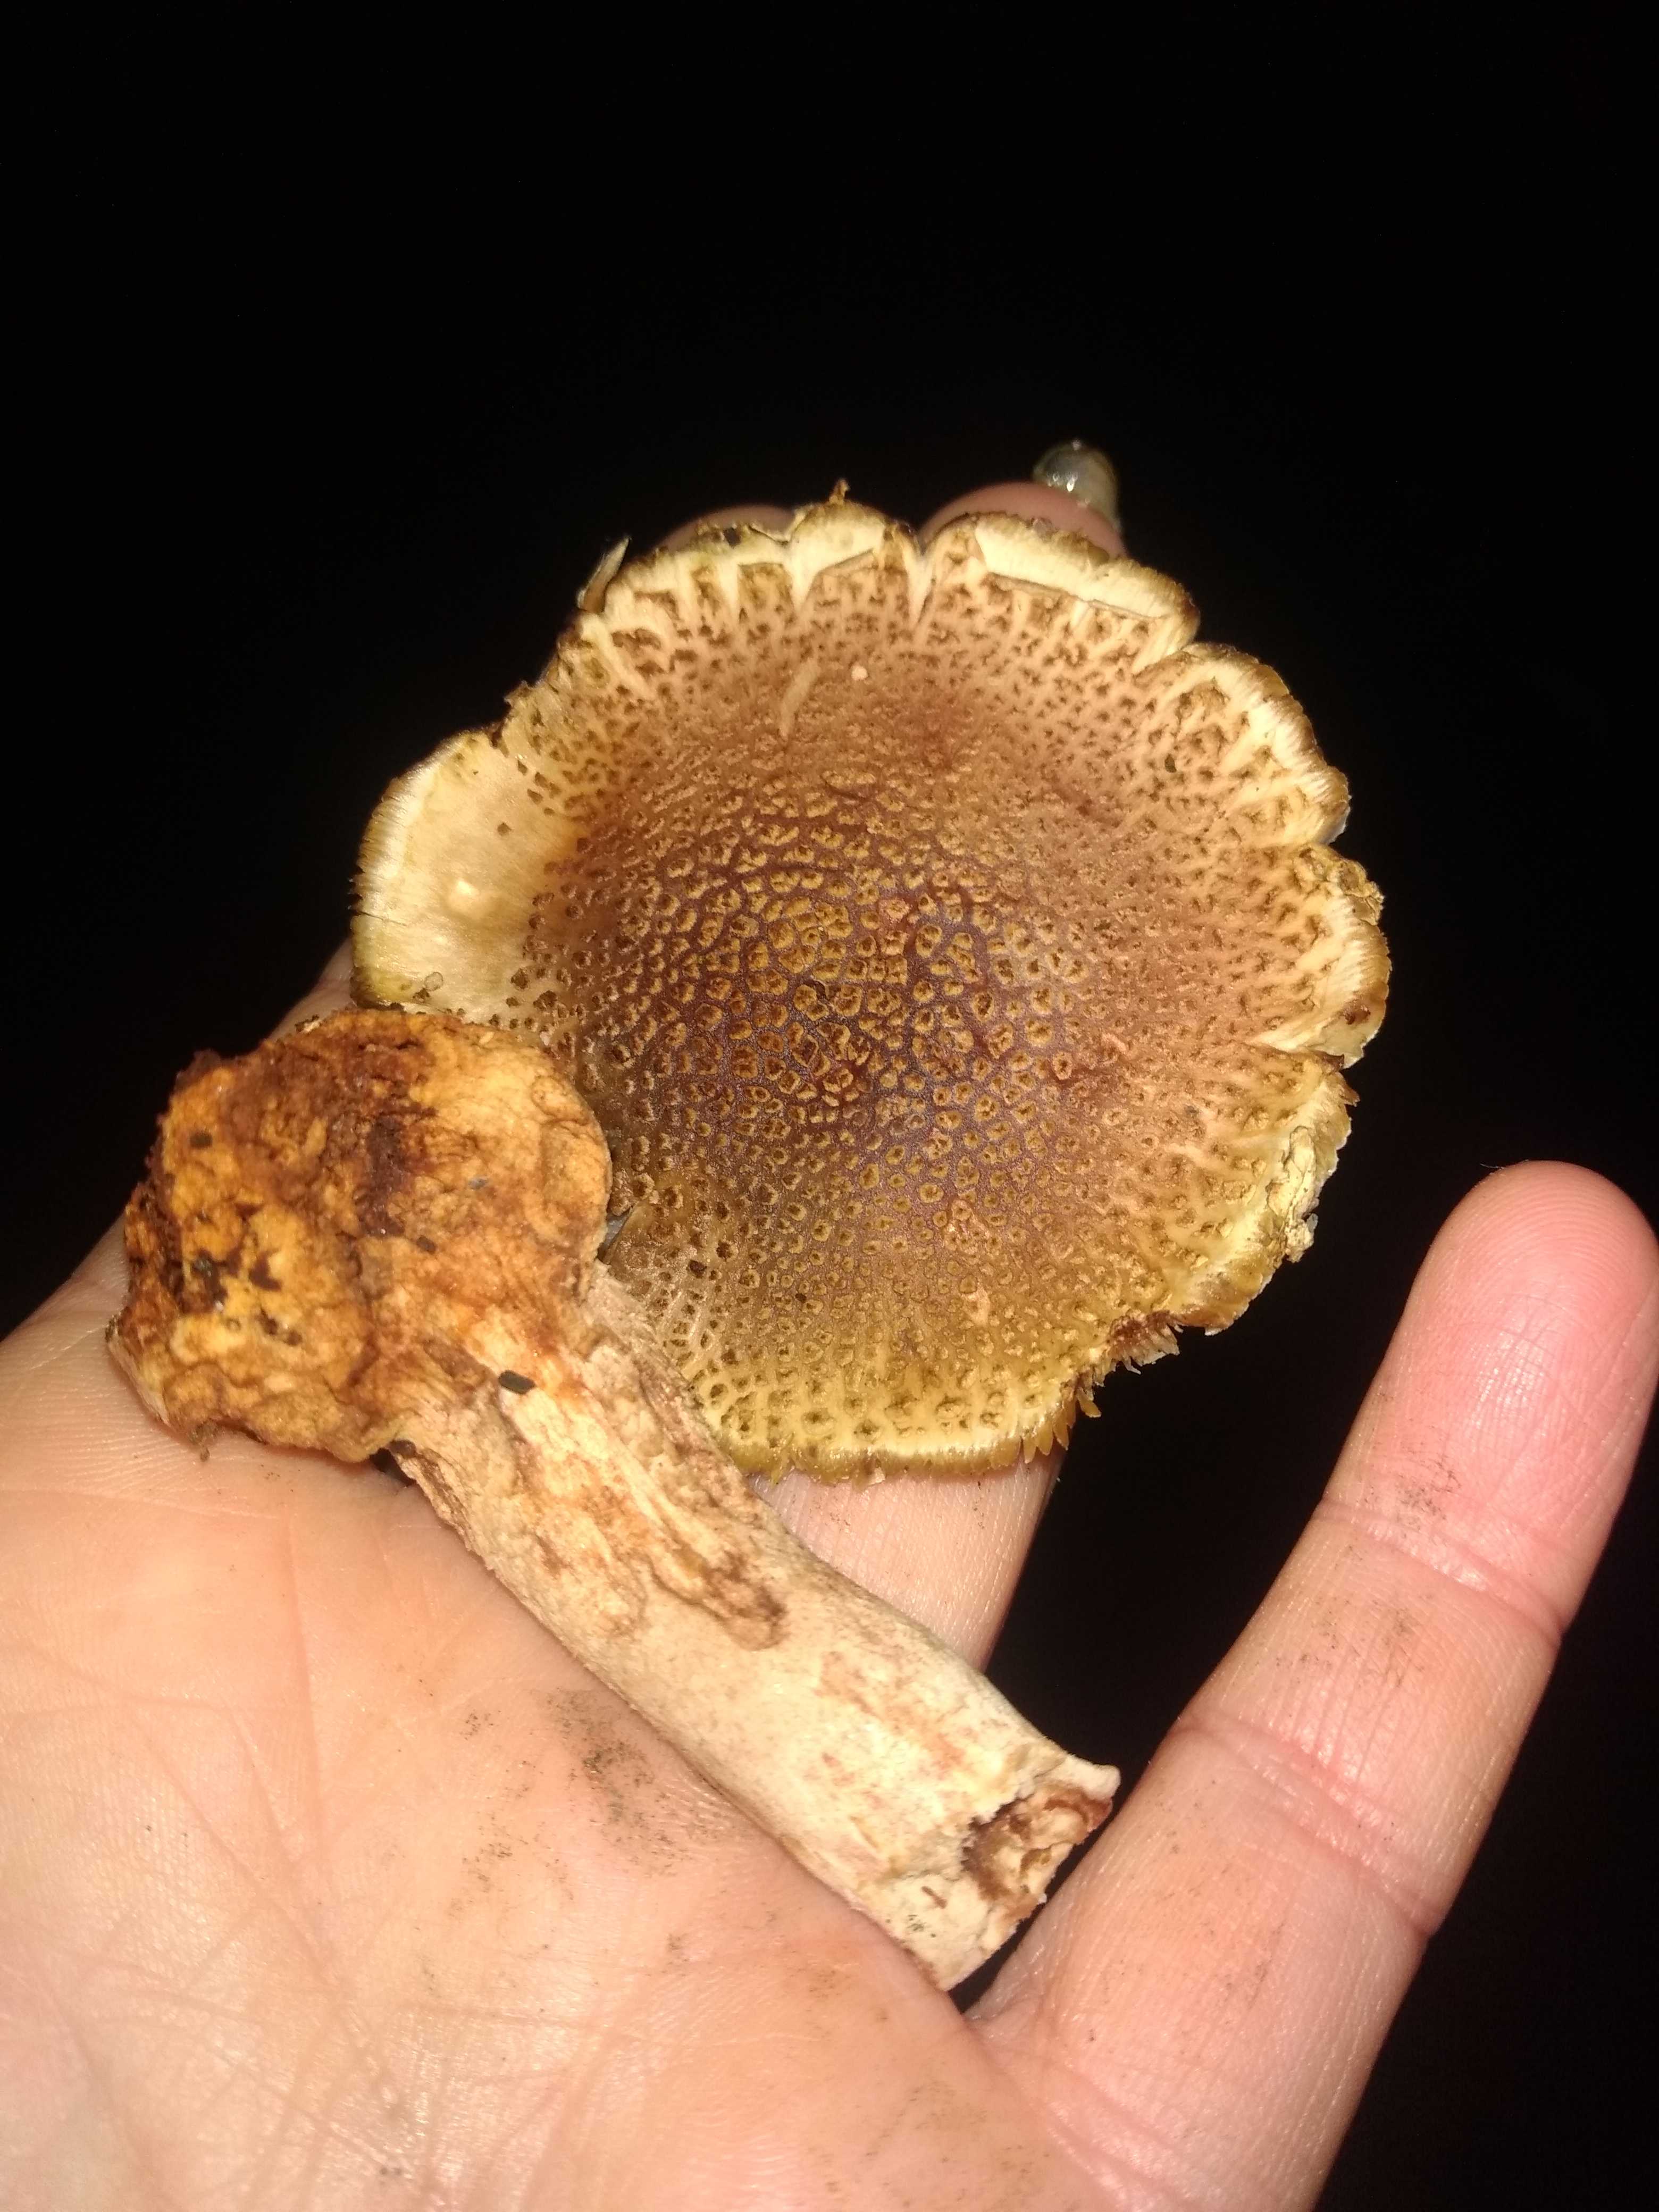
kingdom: Fungi
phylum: Basidiomycota
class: Agaricomycetes
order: Agaricales
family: Amanitaceae
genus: Amanita
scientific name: Amanita rubescens
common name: rødmende fluesvamp
